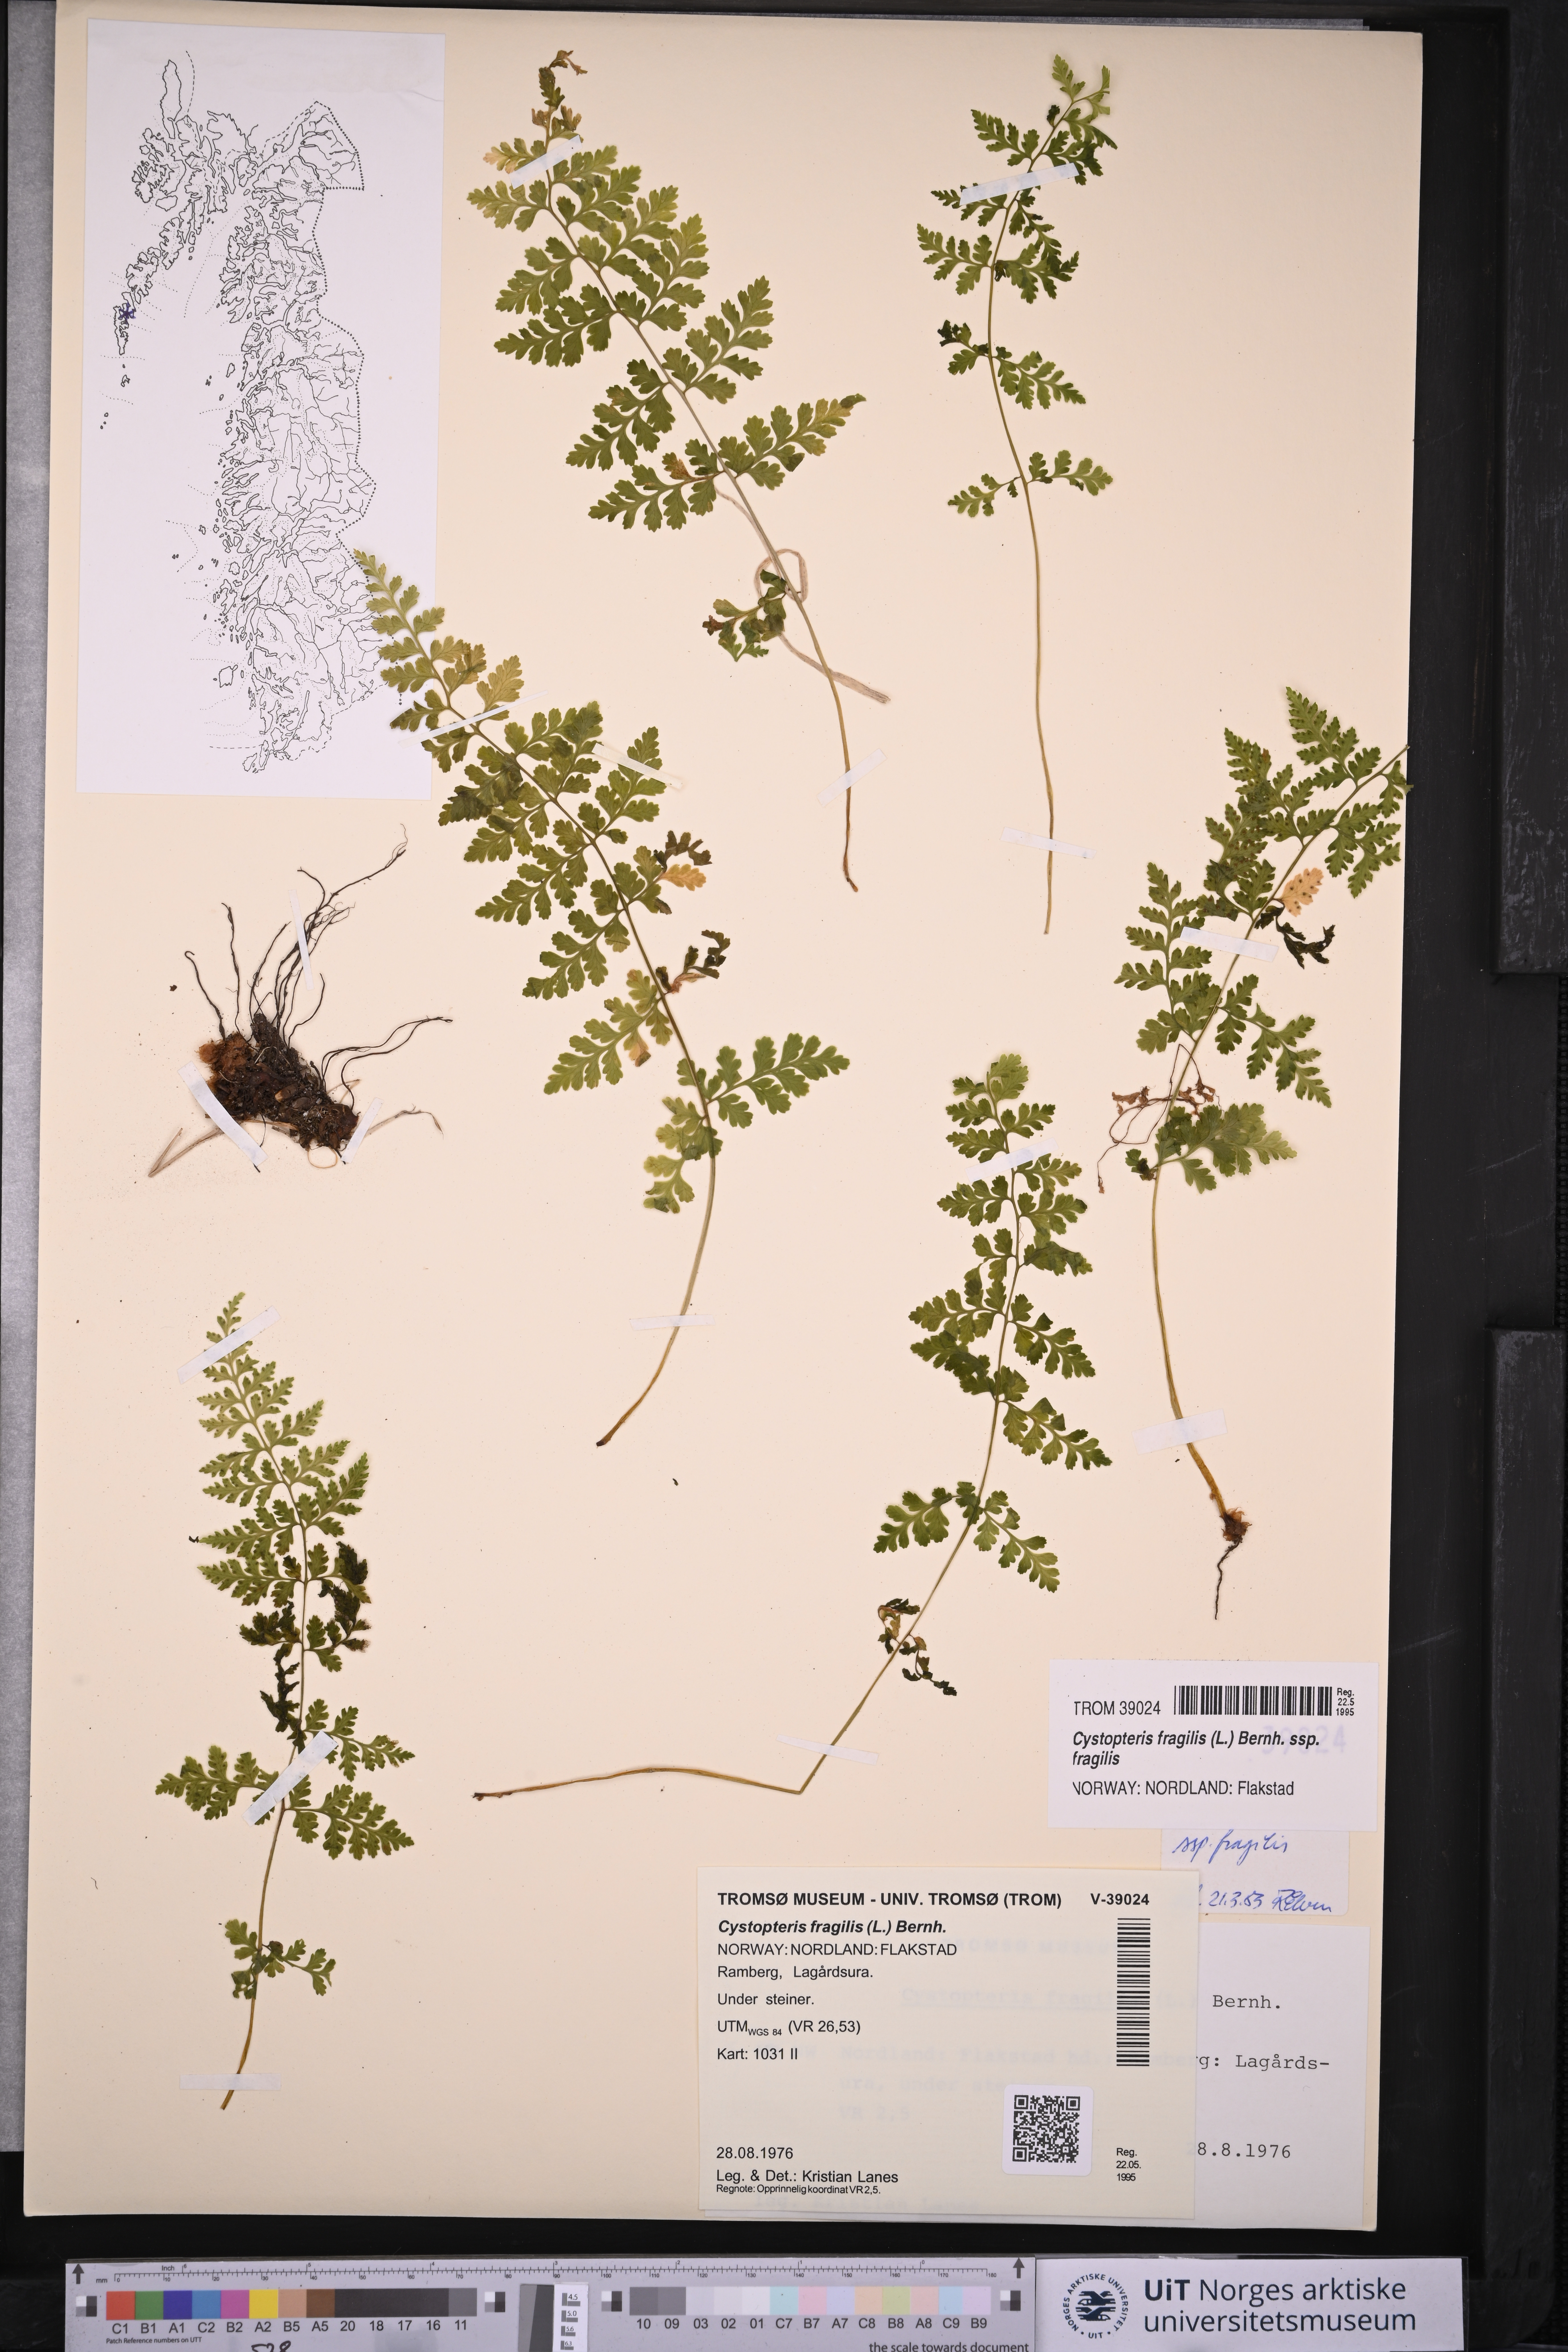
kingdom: Plantae
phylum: Tracheophyta
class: Polypodiopsida
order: Polypodiales
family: Cystopteridaceae
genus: Cystopteris
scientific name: Cystopteris fragilis
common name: Brittle bladder fern
